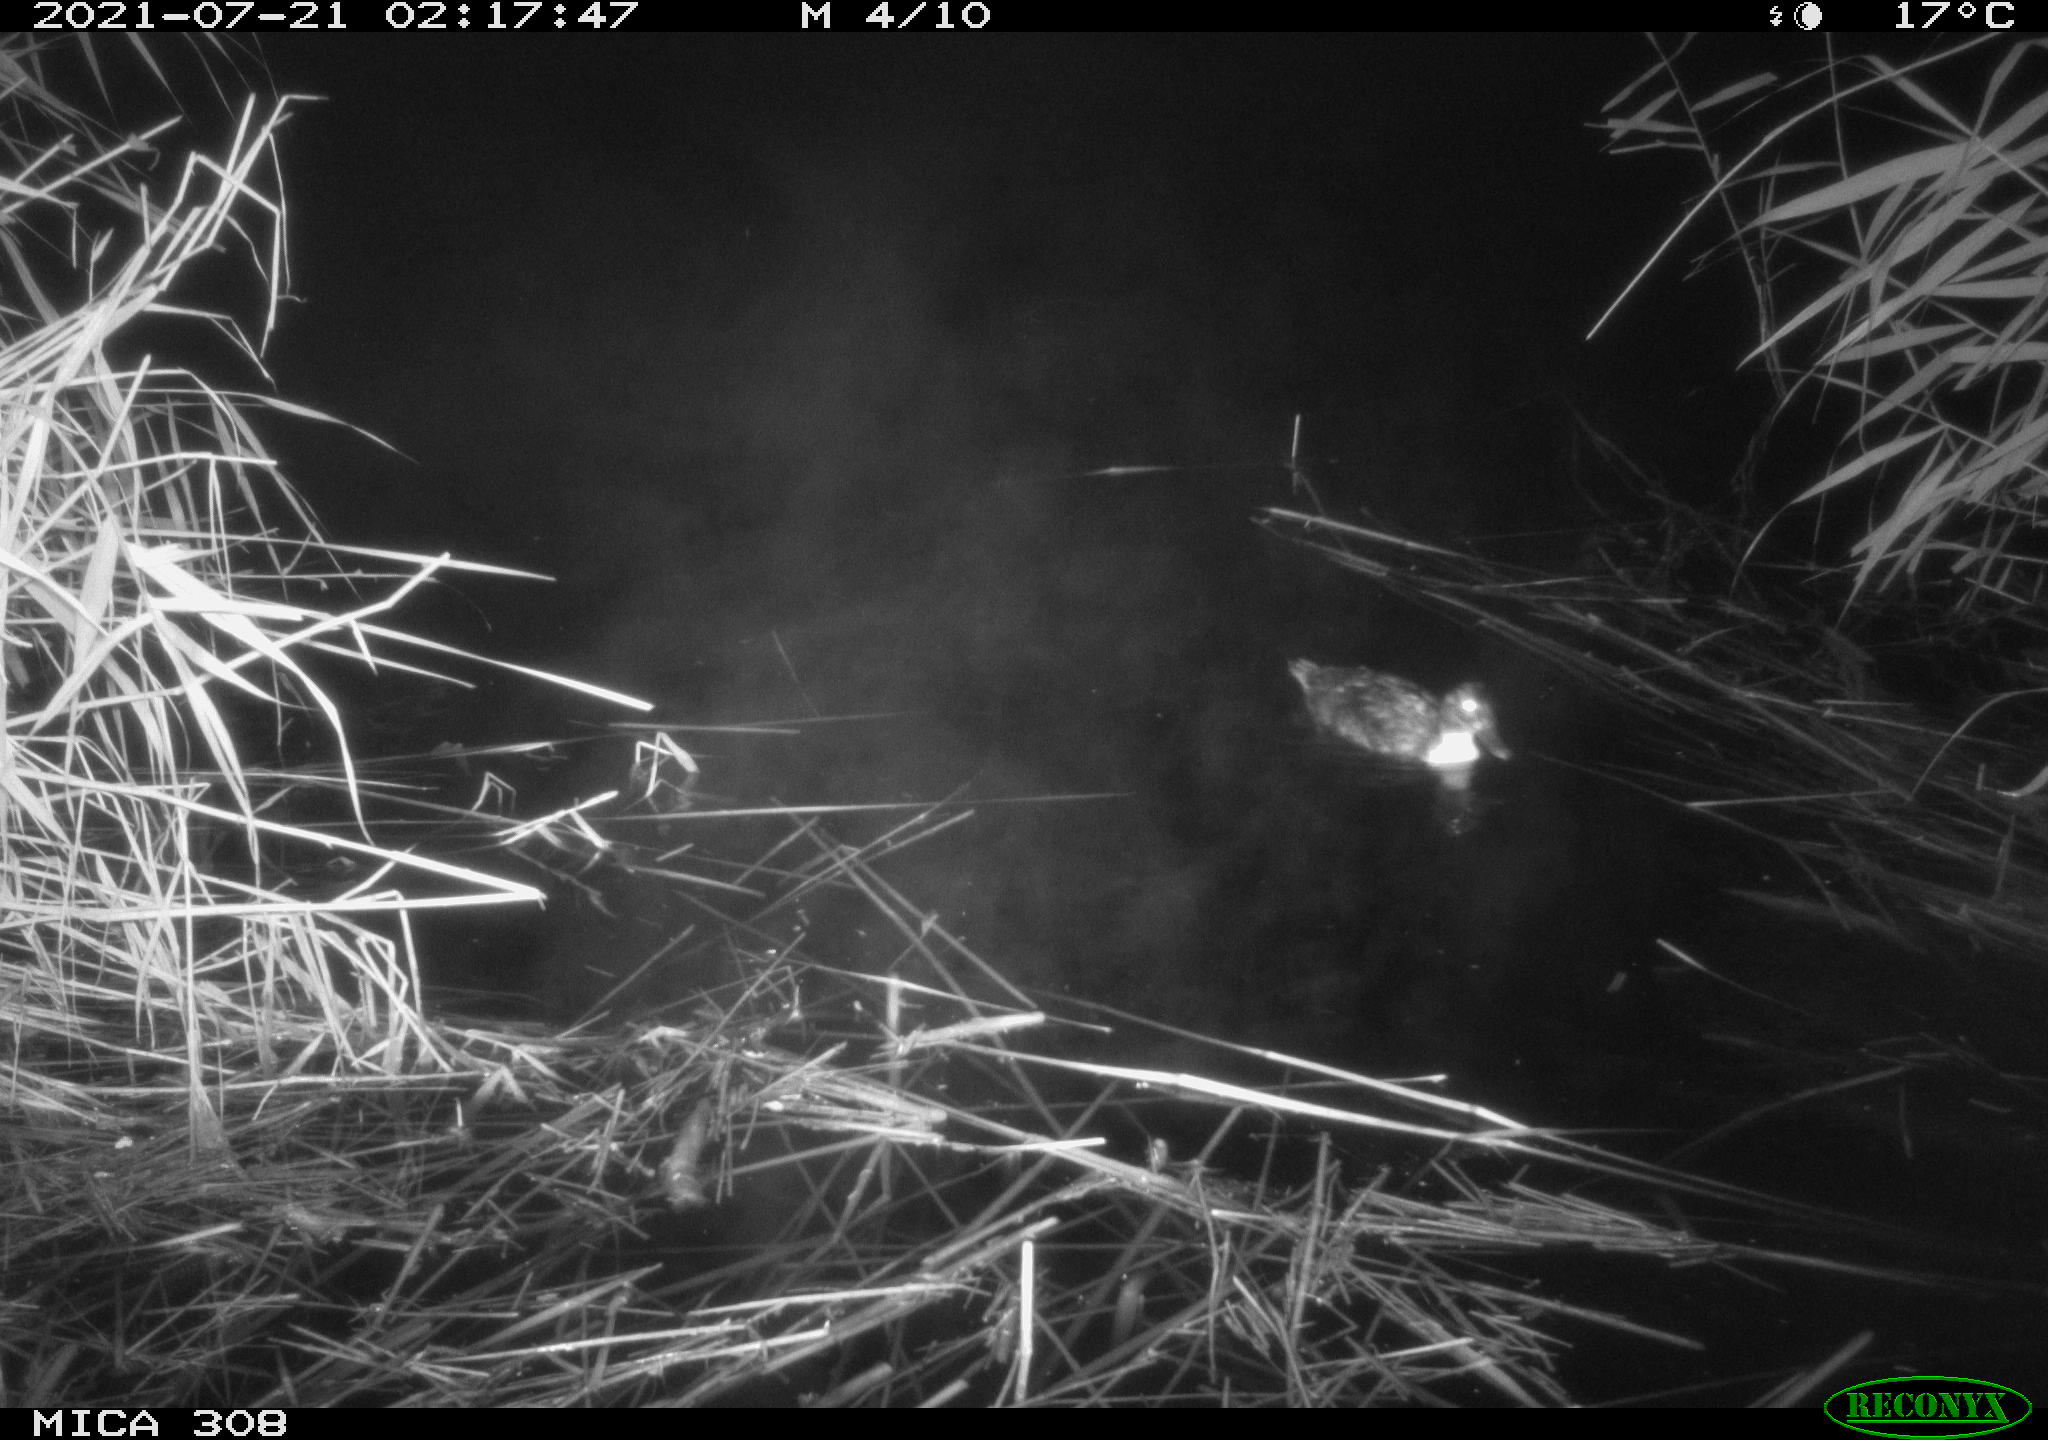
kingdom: Animalia
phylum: Chordata
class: Aves
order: Anseriformes
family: Anatidae
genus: Anas
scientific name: Anas platyrhynchos
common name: Mallard
